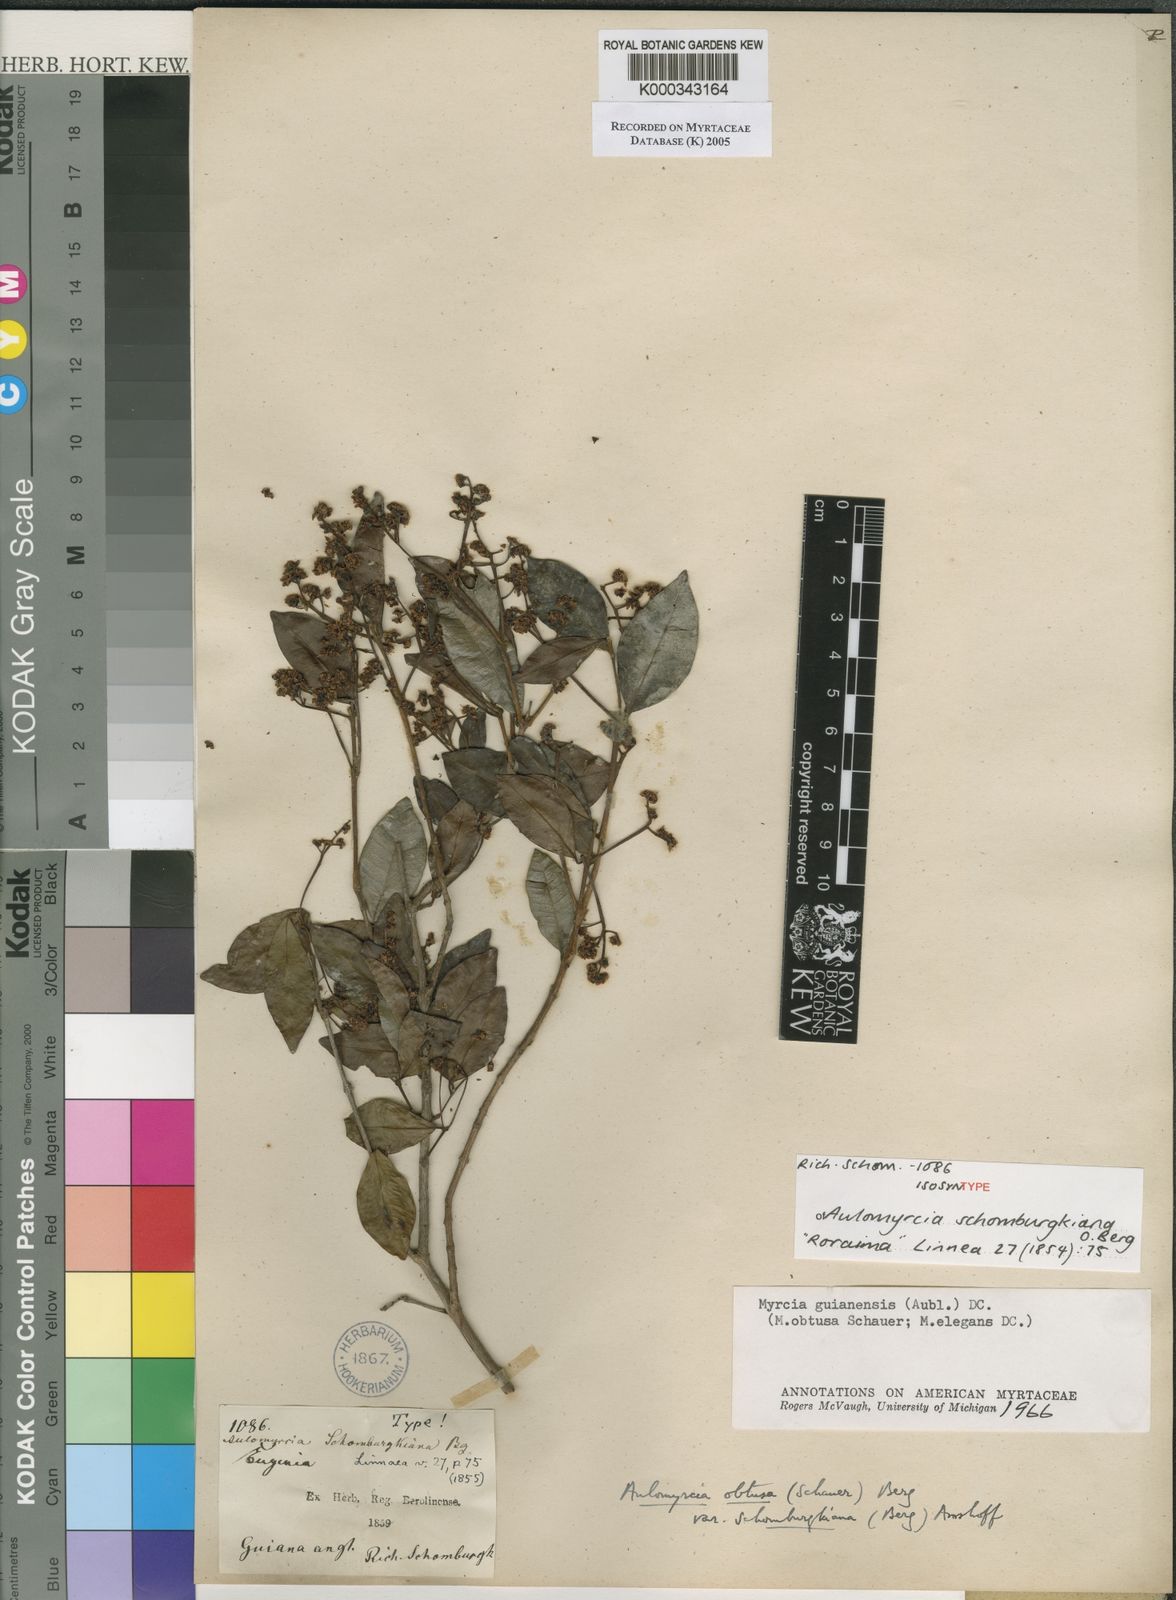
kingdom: Plantae
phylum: Tracheophyta
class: Magnoliopsida
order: Myrtales
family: Myrtaceae
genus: Myrcia
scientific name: Myrcia guianensis
